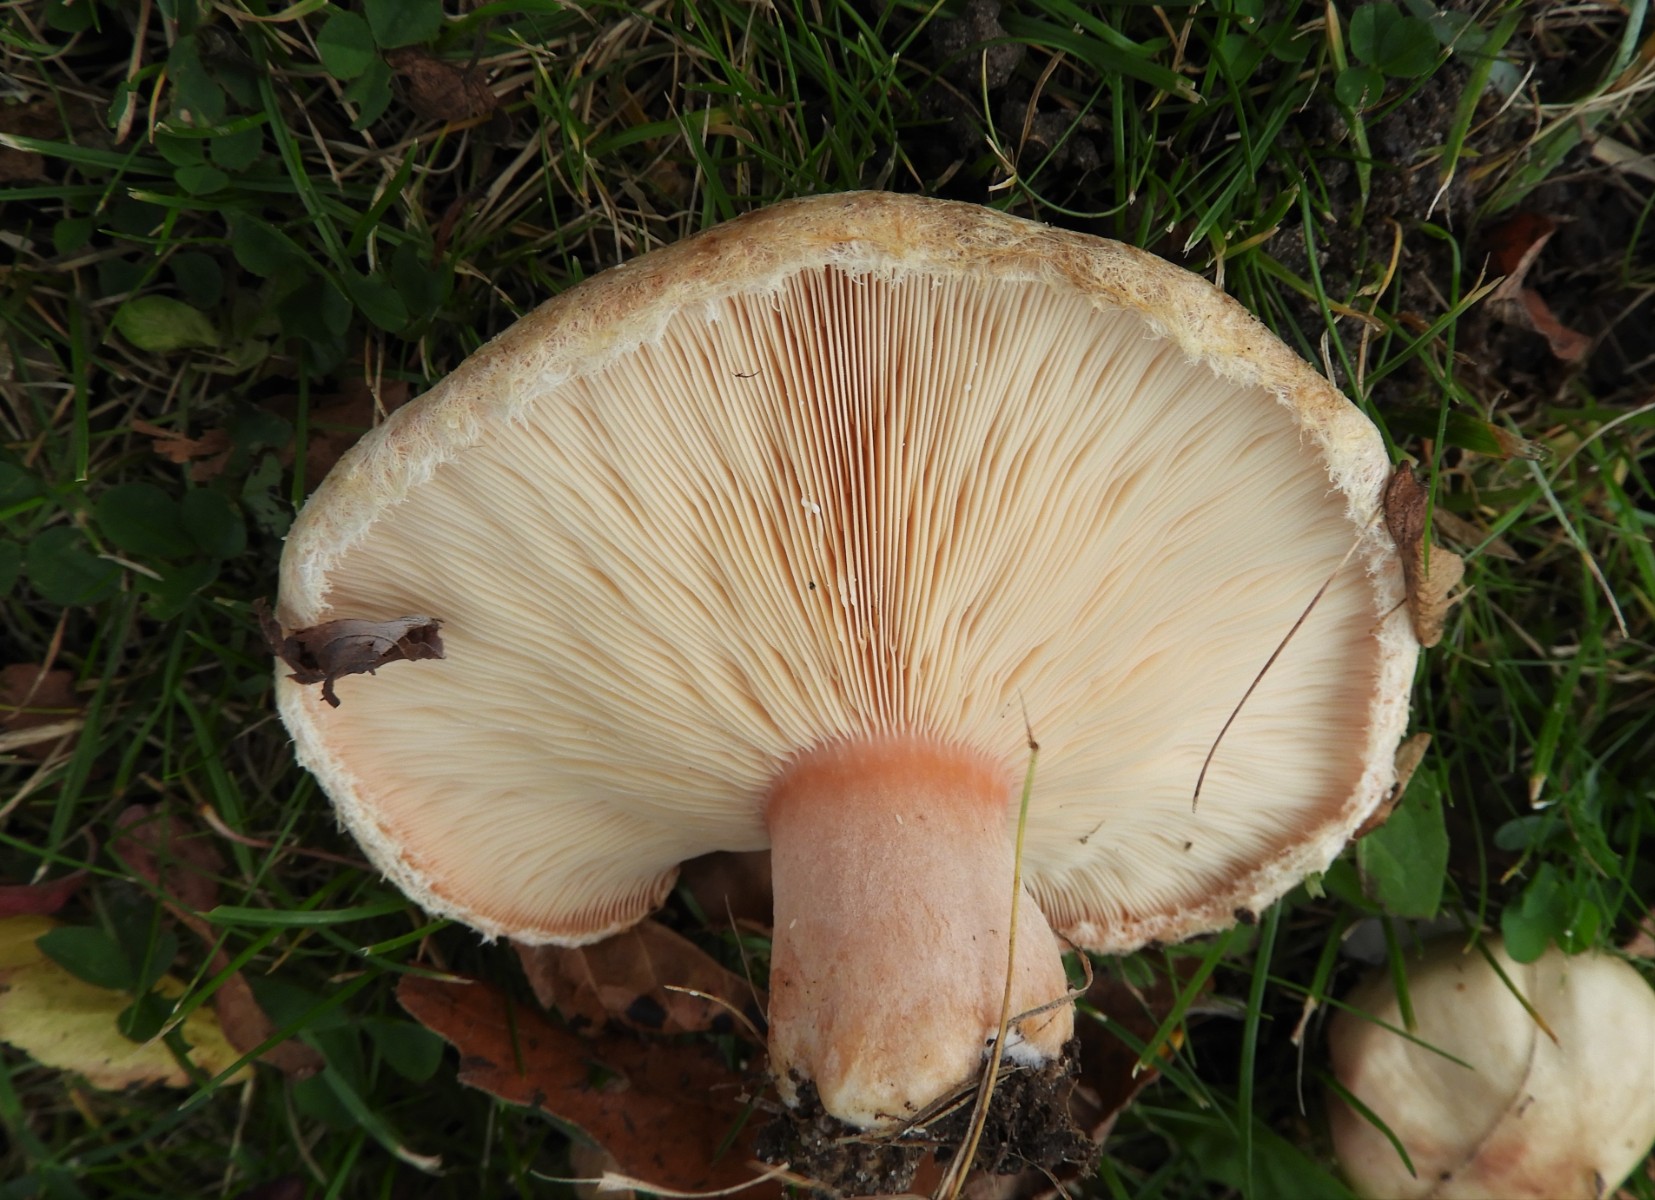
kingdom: Fungi
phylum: Basidiomycota
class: Agaricomycetes
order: Russulales
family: Russulaceae
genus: Lactarius
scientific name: Lactarius pubescens
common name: dunet mælkehat
